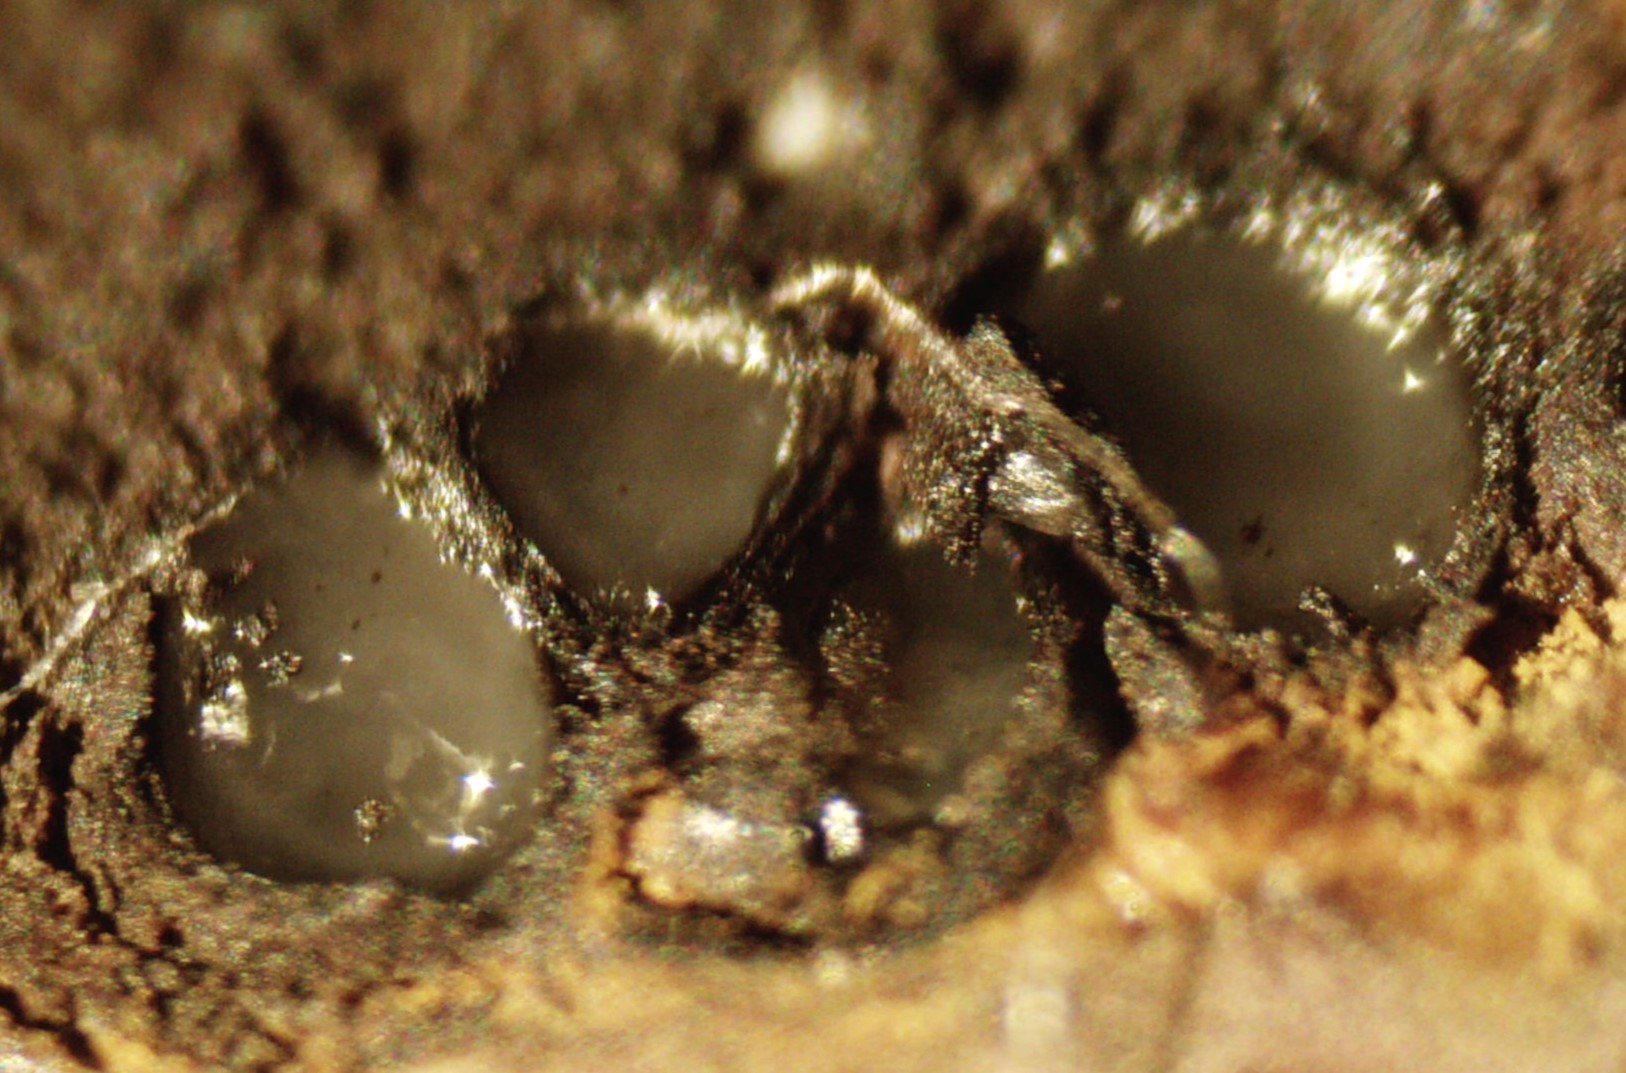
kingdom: Fungi
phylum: Ascomycota
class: Sordariomycetes
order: Xylariales
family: Hypoxylaceae
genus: Jackrogersella
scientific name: Jackrogersella multiformis
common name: foranderlig kulbær
